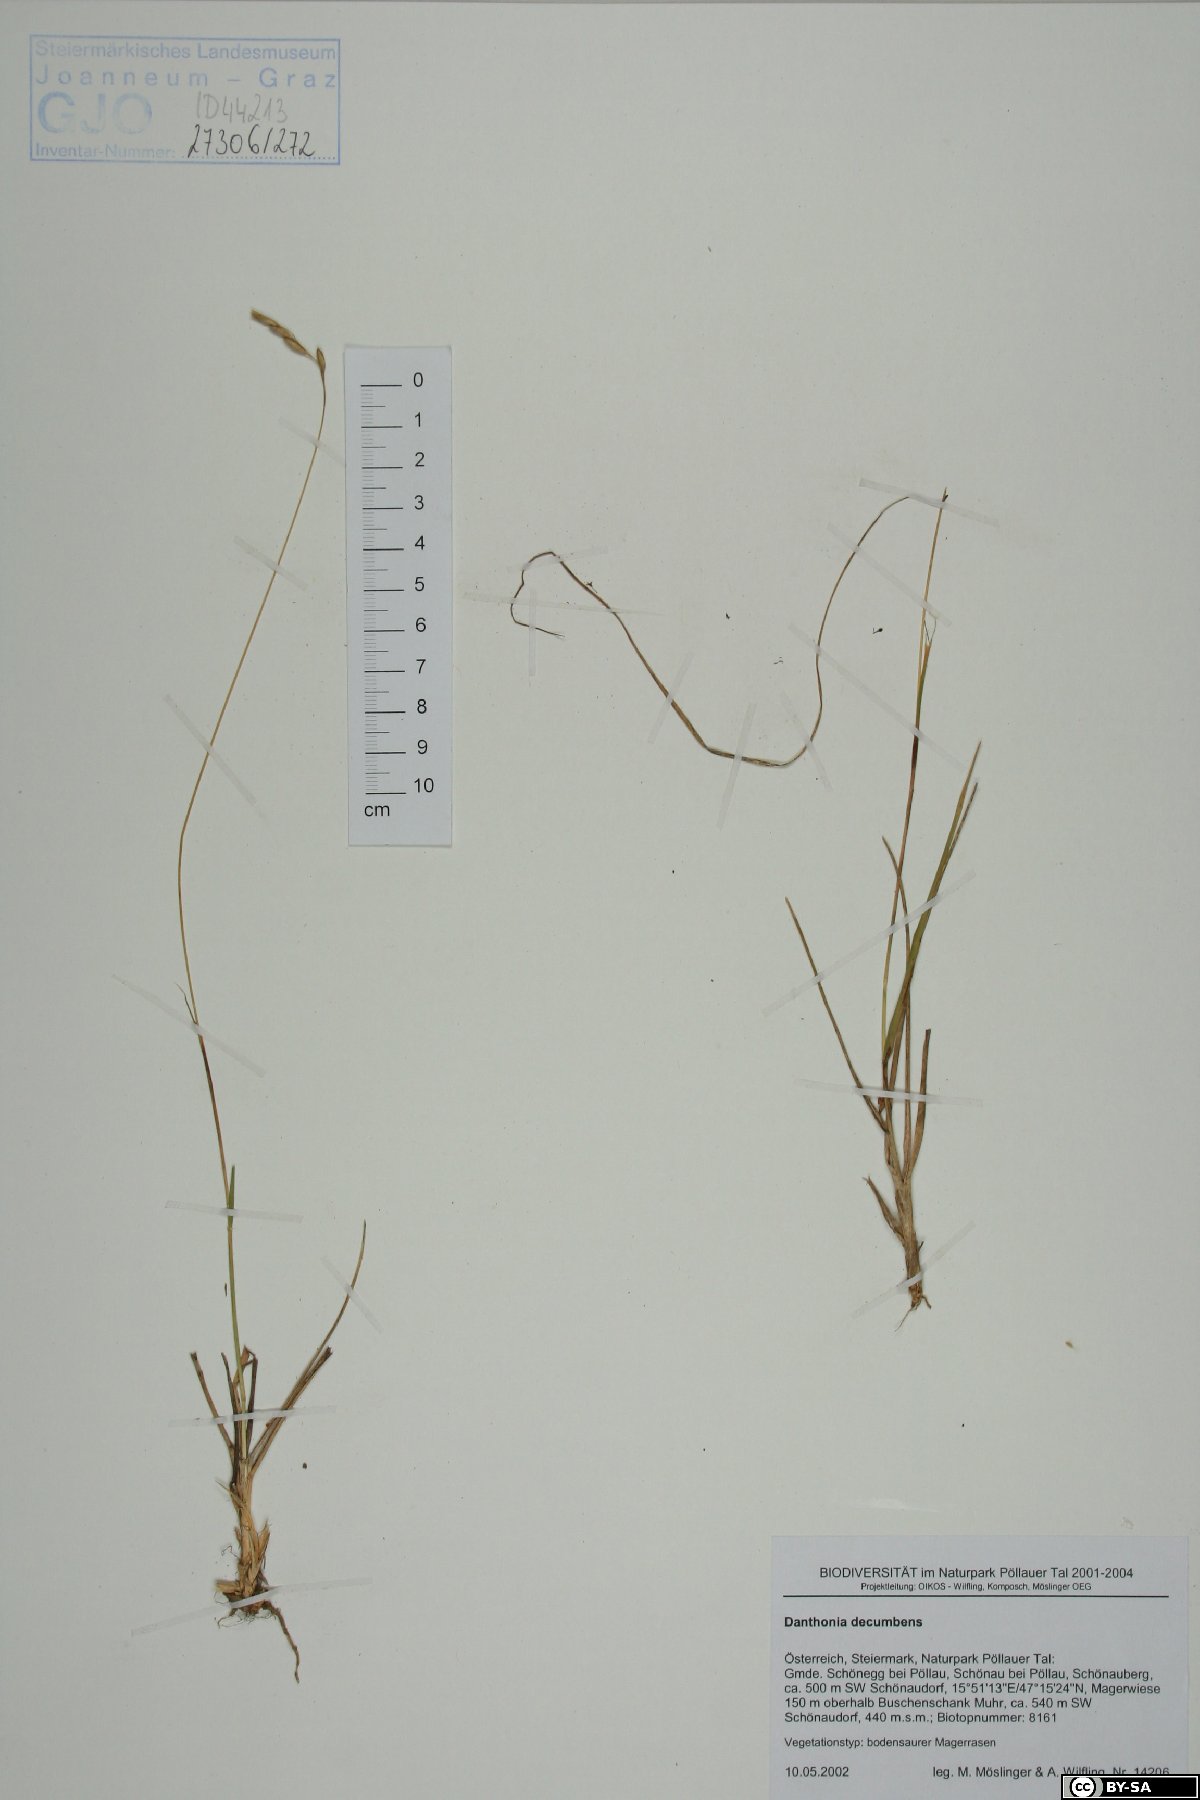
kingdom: Plantae
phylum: Tracheophyta
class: Liliopsida
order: Poales
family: Poaceae
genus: Danthonia
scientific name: Danthonia decumbens
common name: Common heathgrass
